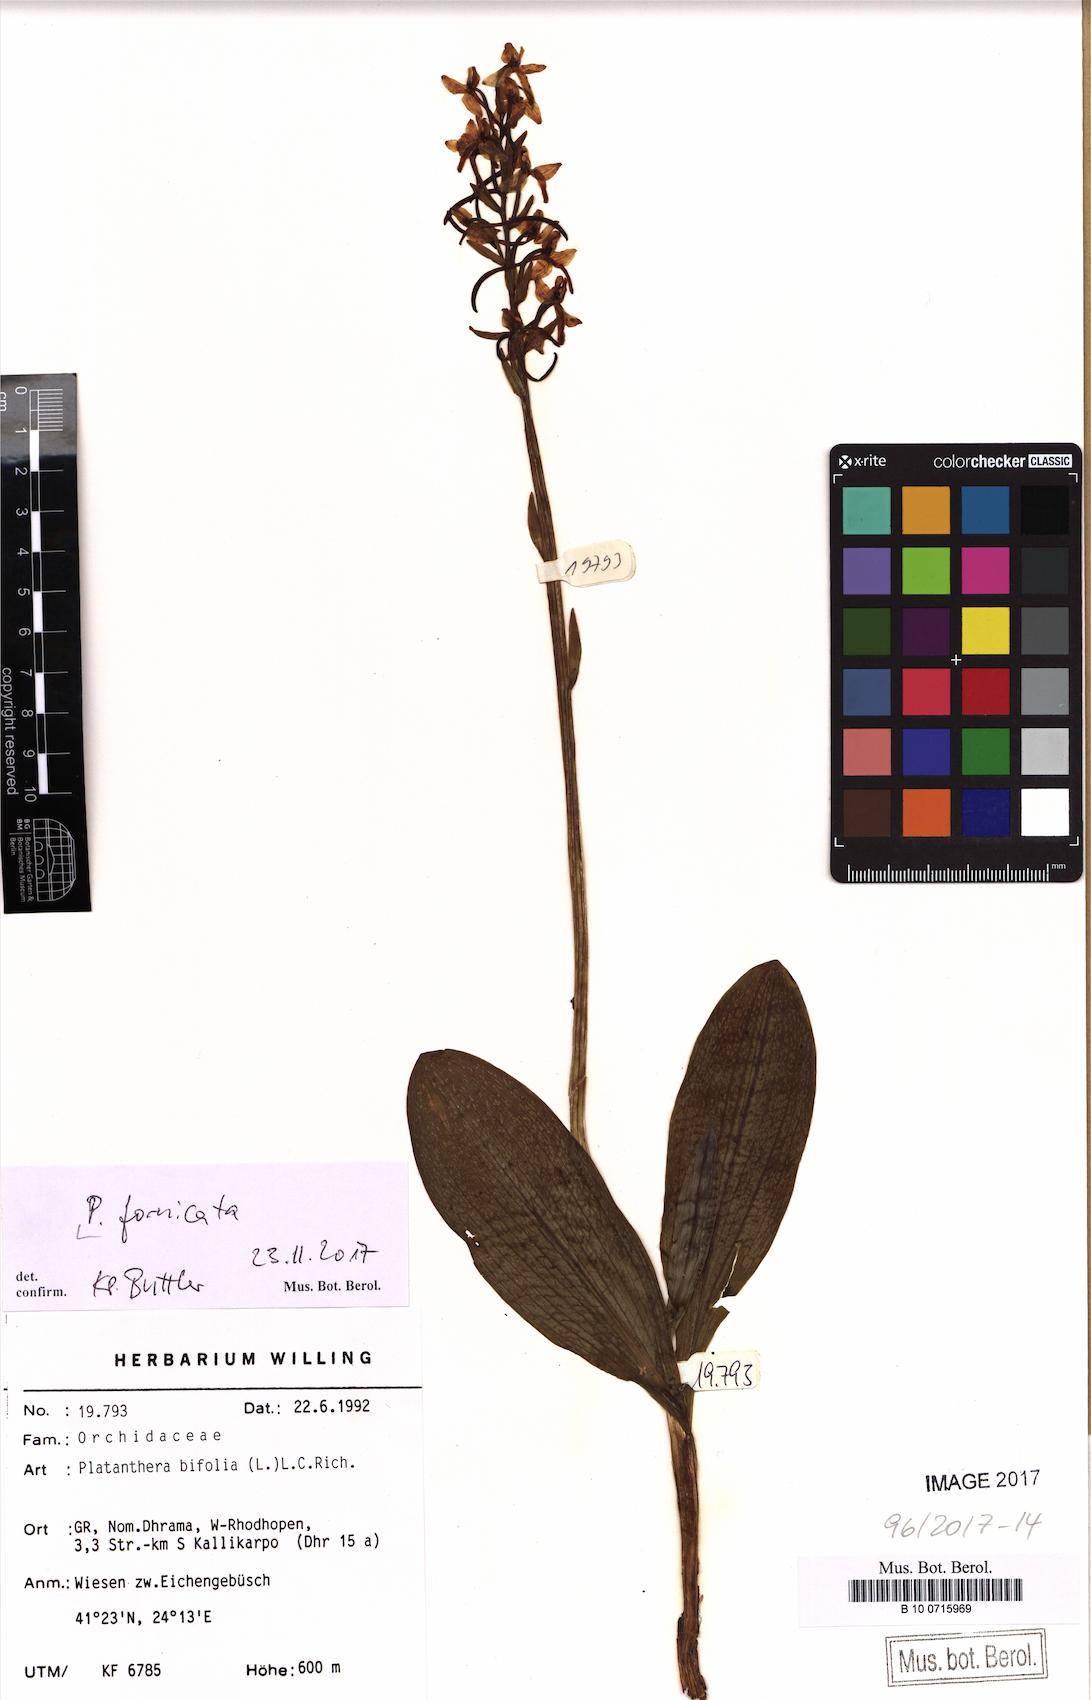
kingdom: Plantae
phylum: Tracheophyta
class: Liliopsida
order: Asparagales
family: Orchidaceae
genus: Platanthera
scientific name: Platanthera bifolia
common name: Lesser butterfly-orchid
